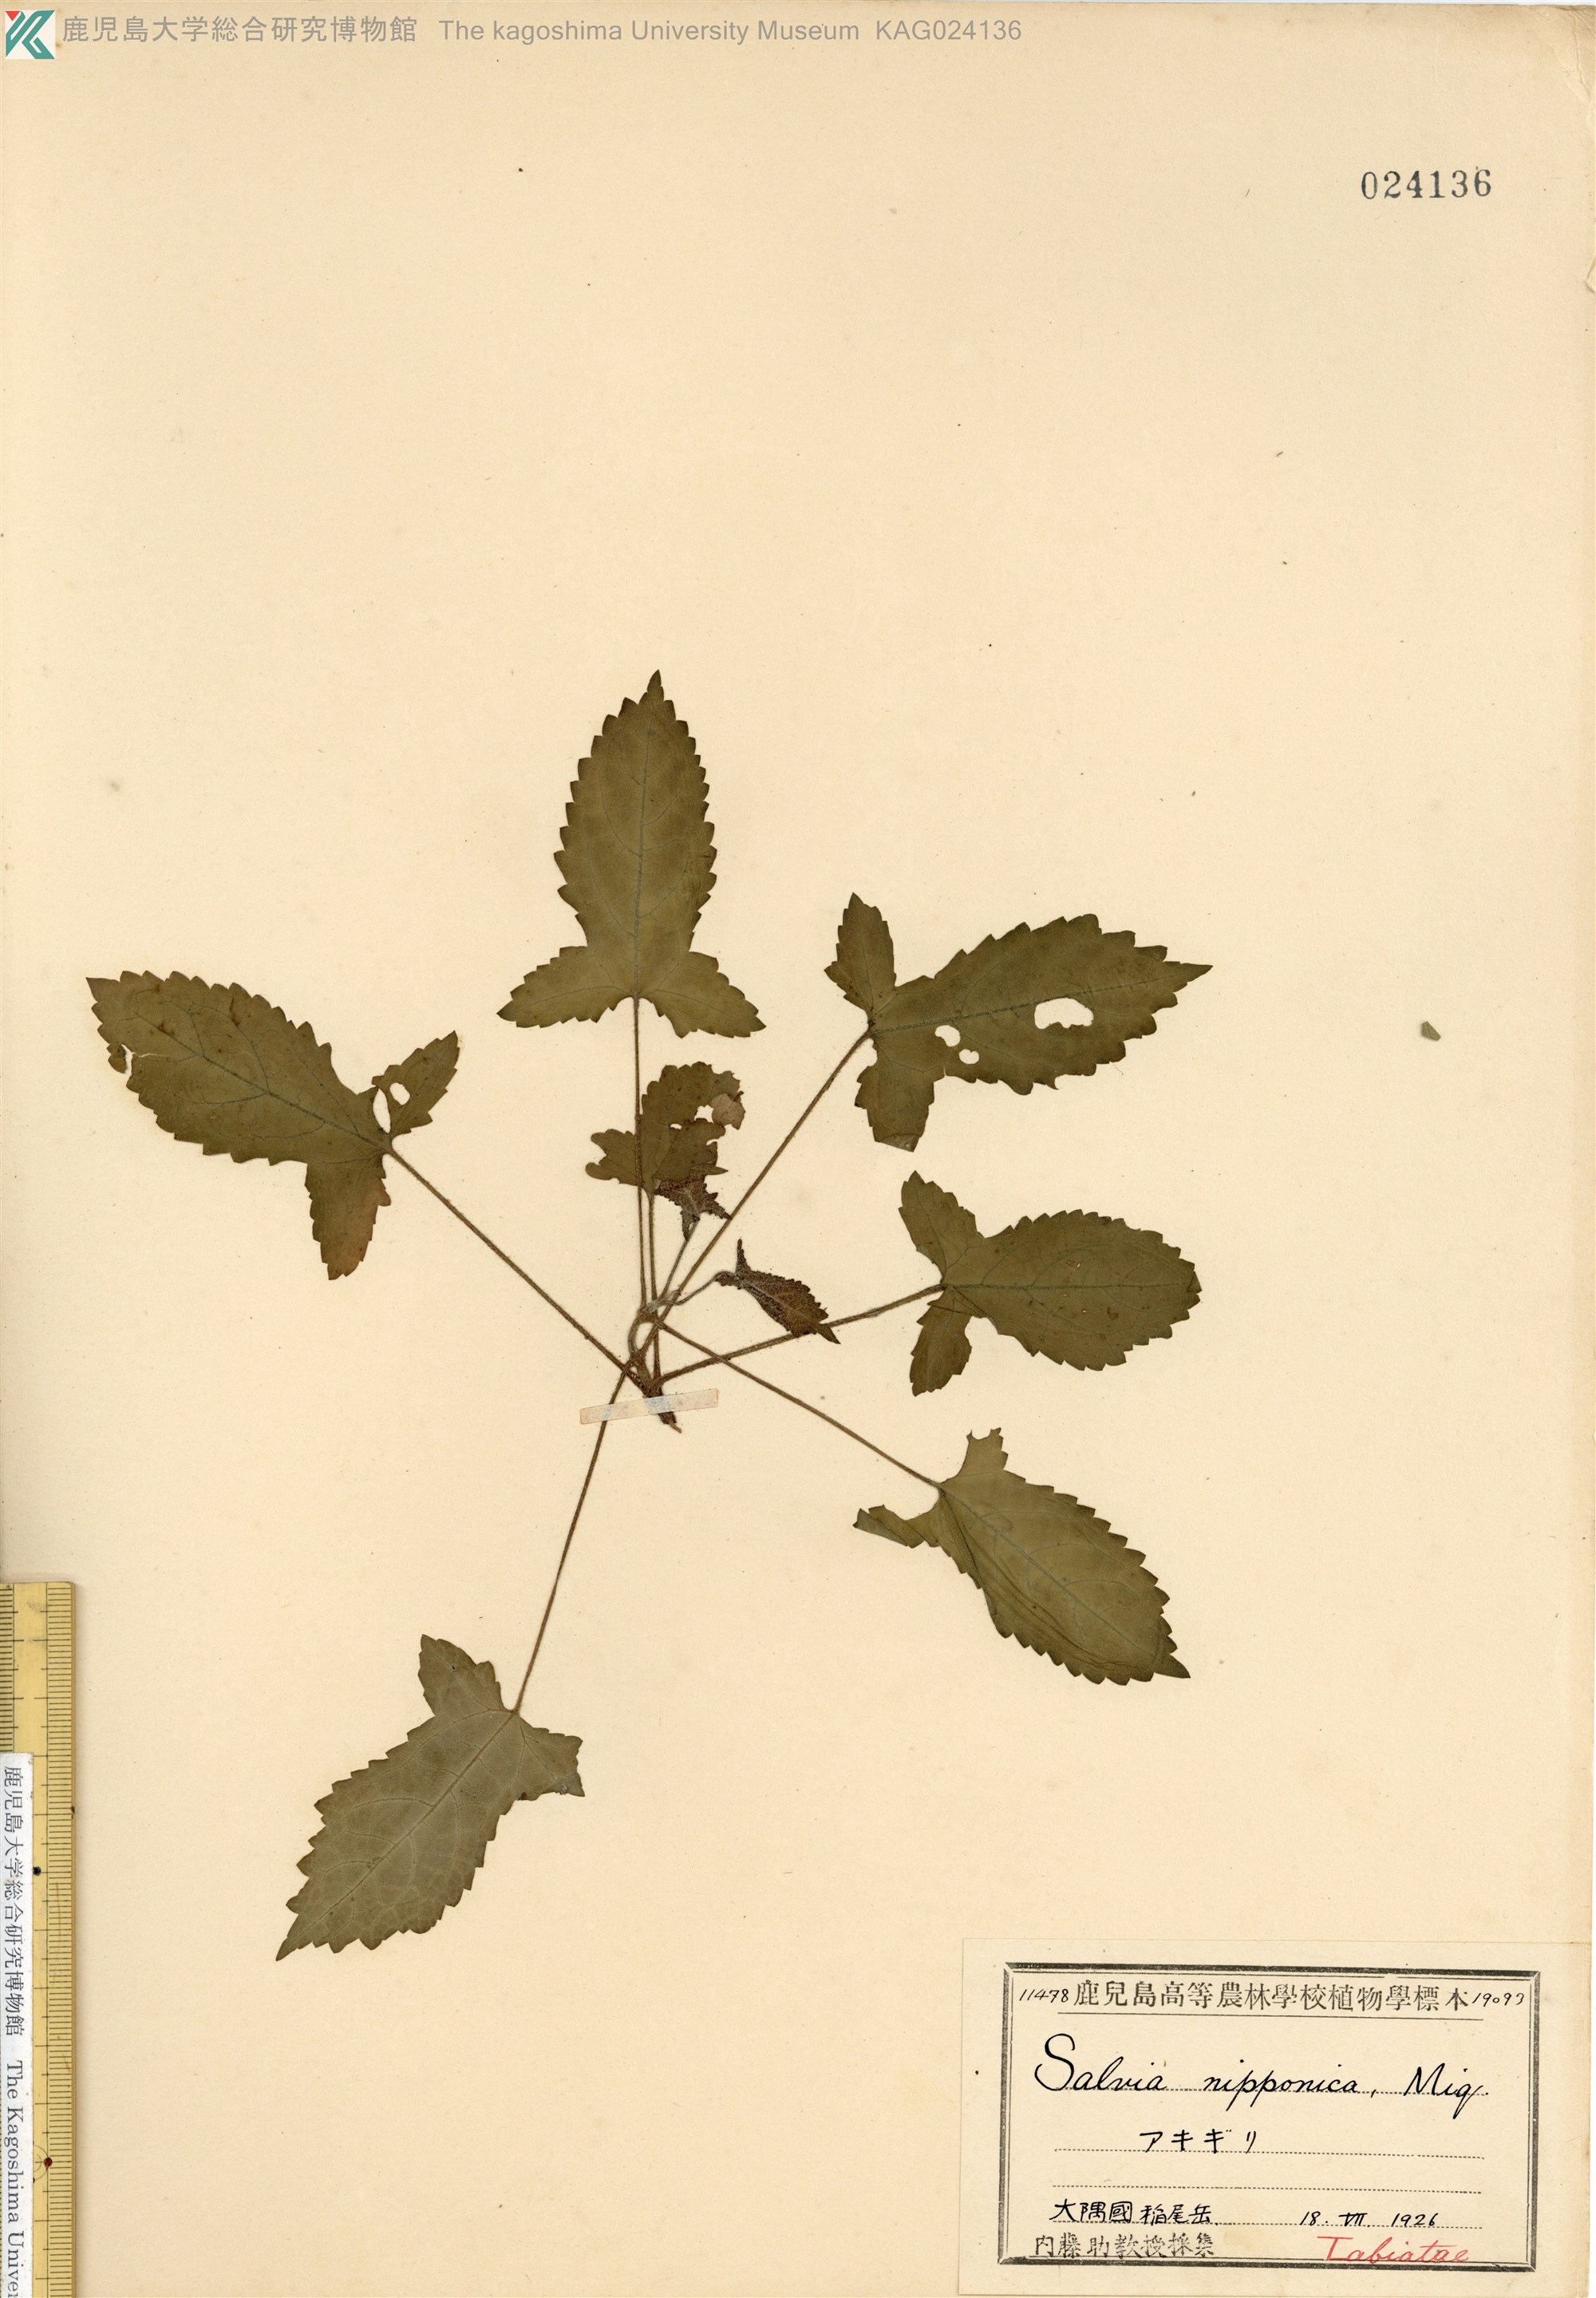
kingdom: Plantae
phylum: Tracheophyta
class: Magnoliopsida
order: Lamiales
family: Lamiaceae
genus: Salvia
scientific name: Salvia nipponica
